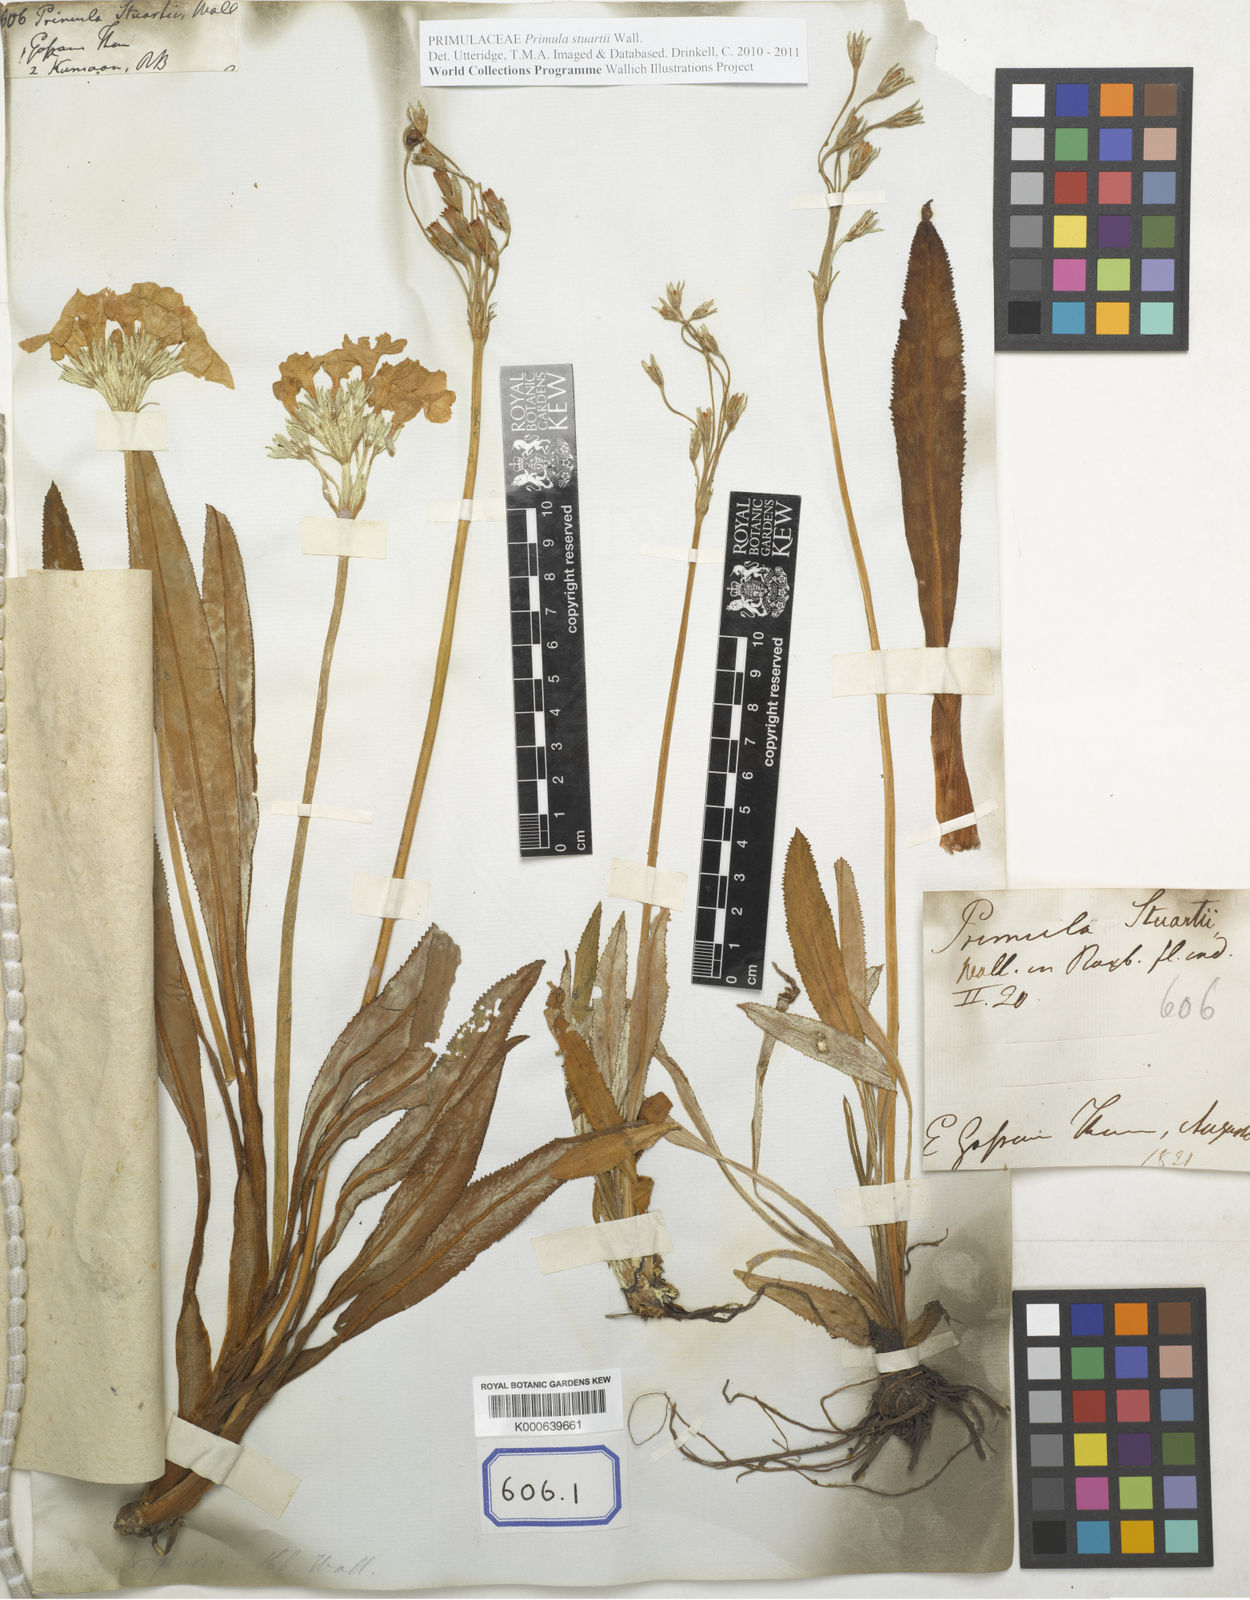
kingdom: Plantae
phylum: Tracheophyta
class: Magnoliopsida
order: Ericales
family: Primulaceae
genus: Primula
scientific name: Primula stuartii
